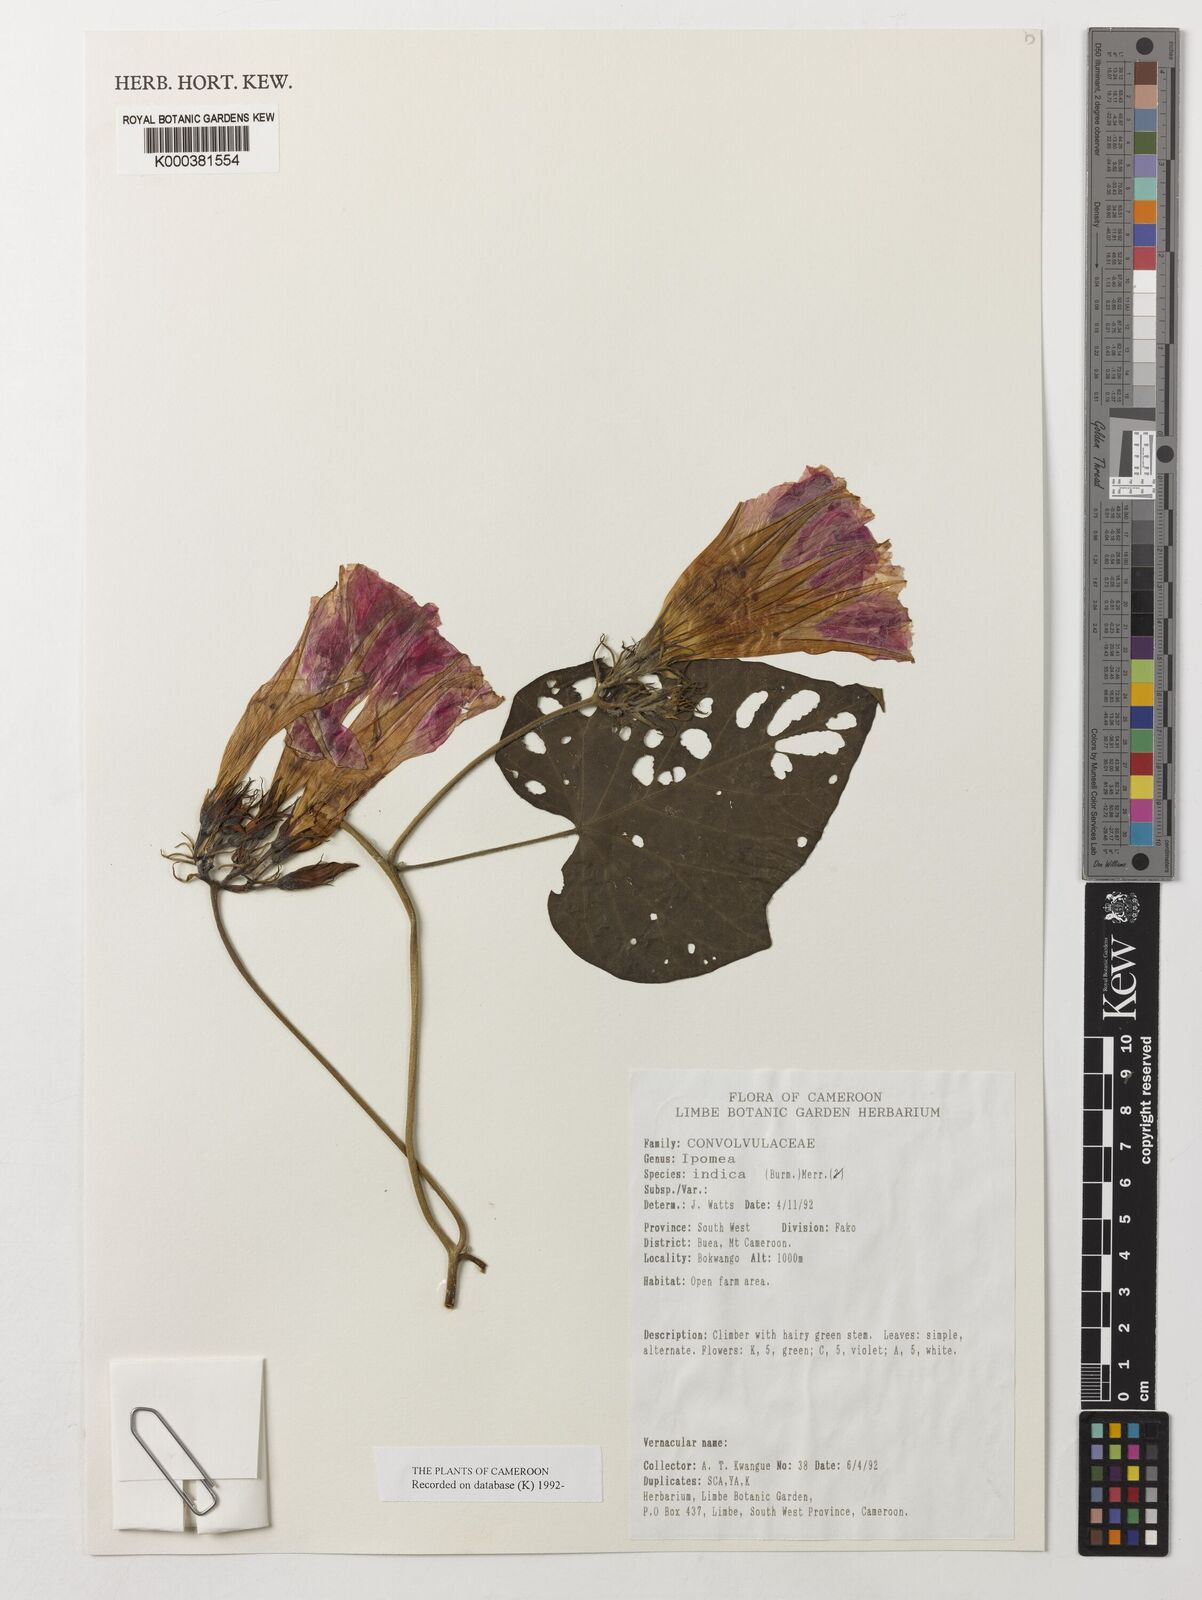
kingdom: Plantae
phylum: Tracheophyta
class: Magnoliopsida
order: Solanales
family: Convolvulaceae
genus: Ipomoea
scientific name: Ipomoea indica
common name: Blue dawnflower
